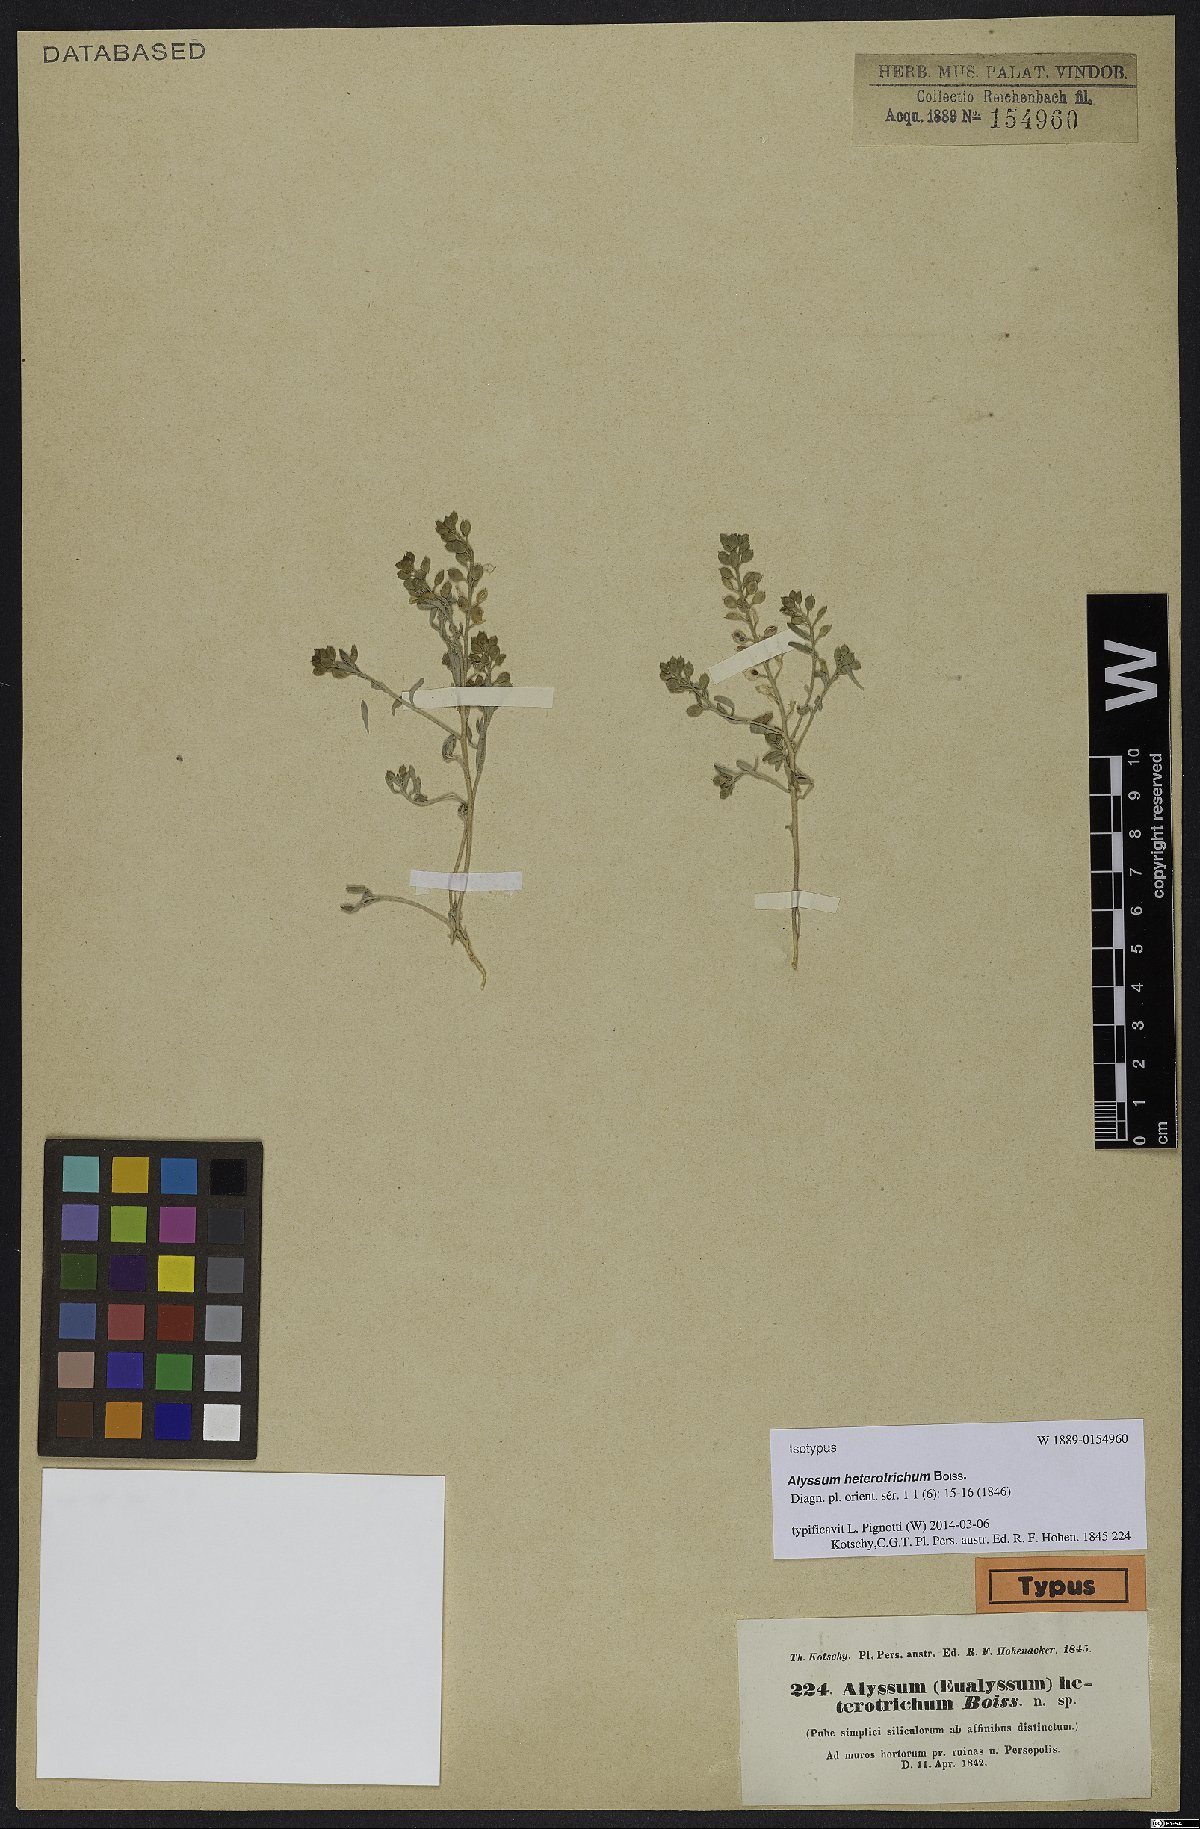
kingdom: Plantae
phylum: Tracheophyta
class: Magnoliopsida
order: Brassicales
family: Brassicaceae
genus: Meniocus
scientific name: Meniocus heterotrichus
